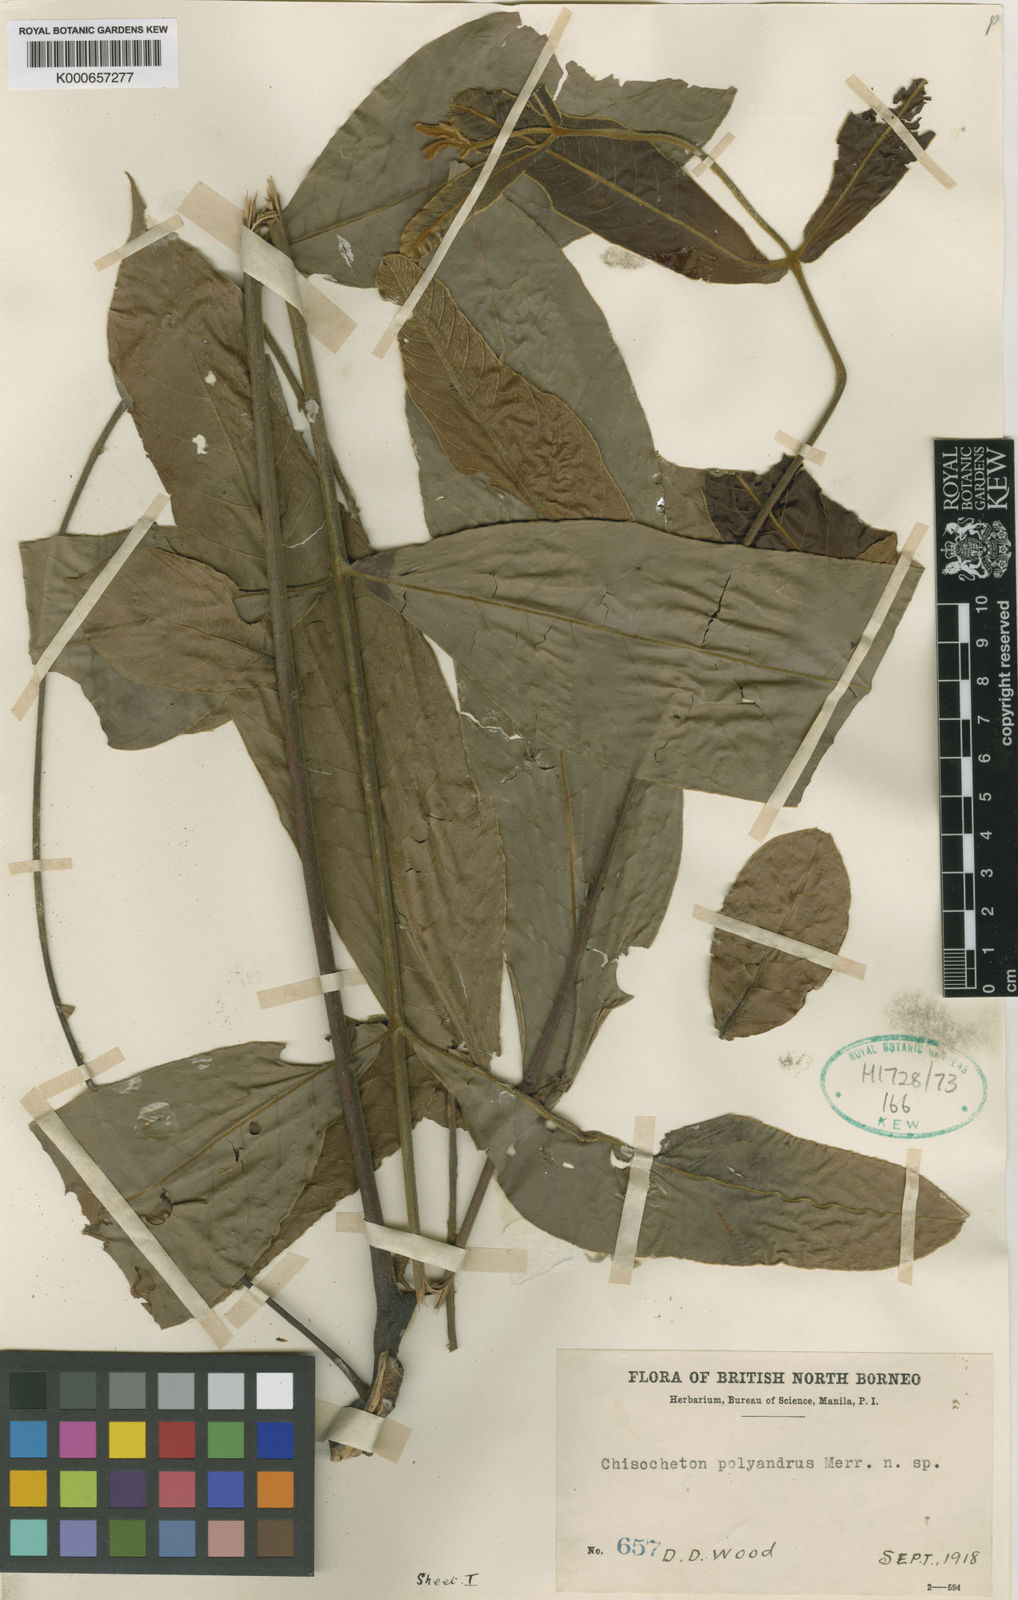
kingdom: Plantae
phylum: Tracheophyta
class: Magnoliopsida
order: Sapindales
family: Meliaceae
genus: Chisocheton
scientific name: Chisocheton polyandrus
